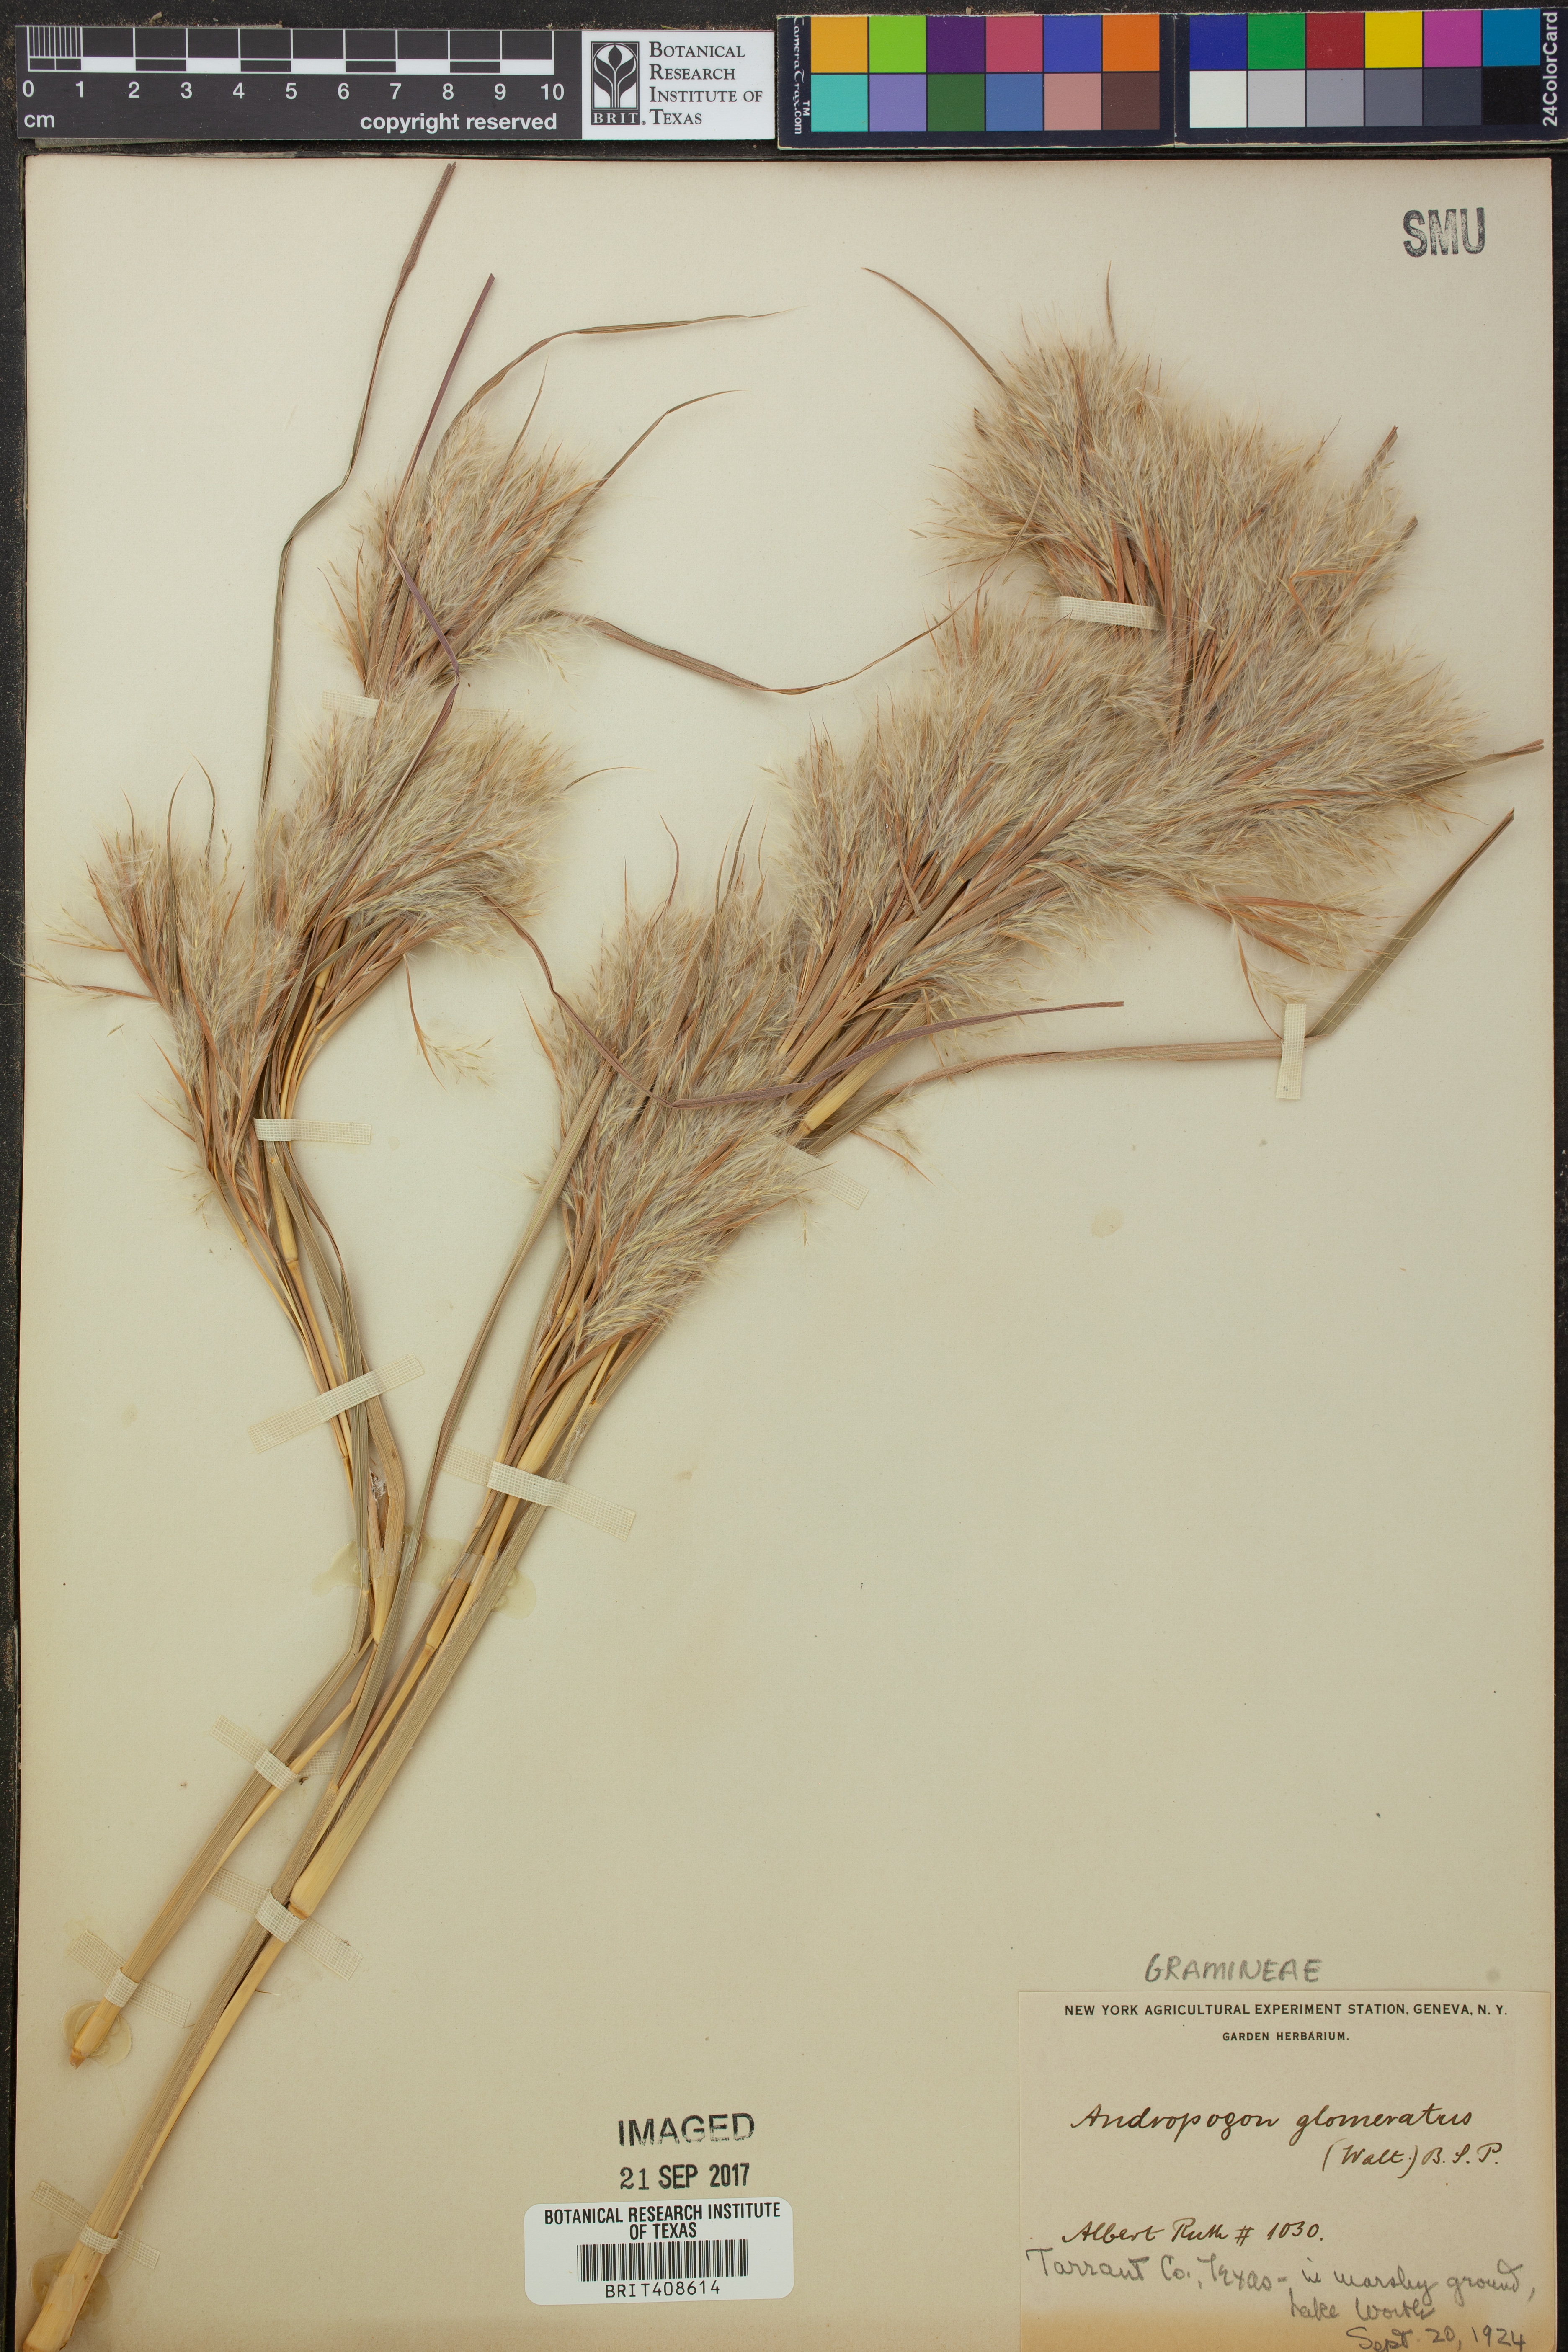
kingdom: Plantae
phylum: Tracheophyta
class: Liliopsida
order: Poales
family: Poaceae
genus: Andropogon
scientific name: Andropogon glomeratus
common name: Bushy beard grass
